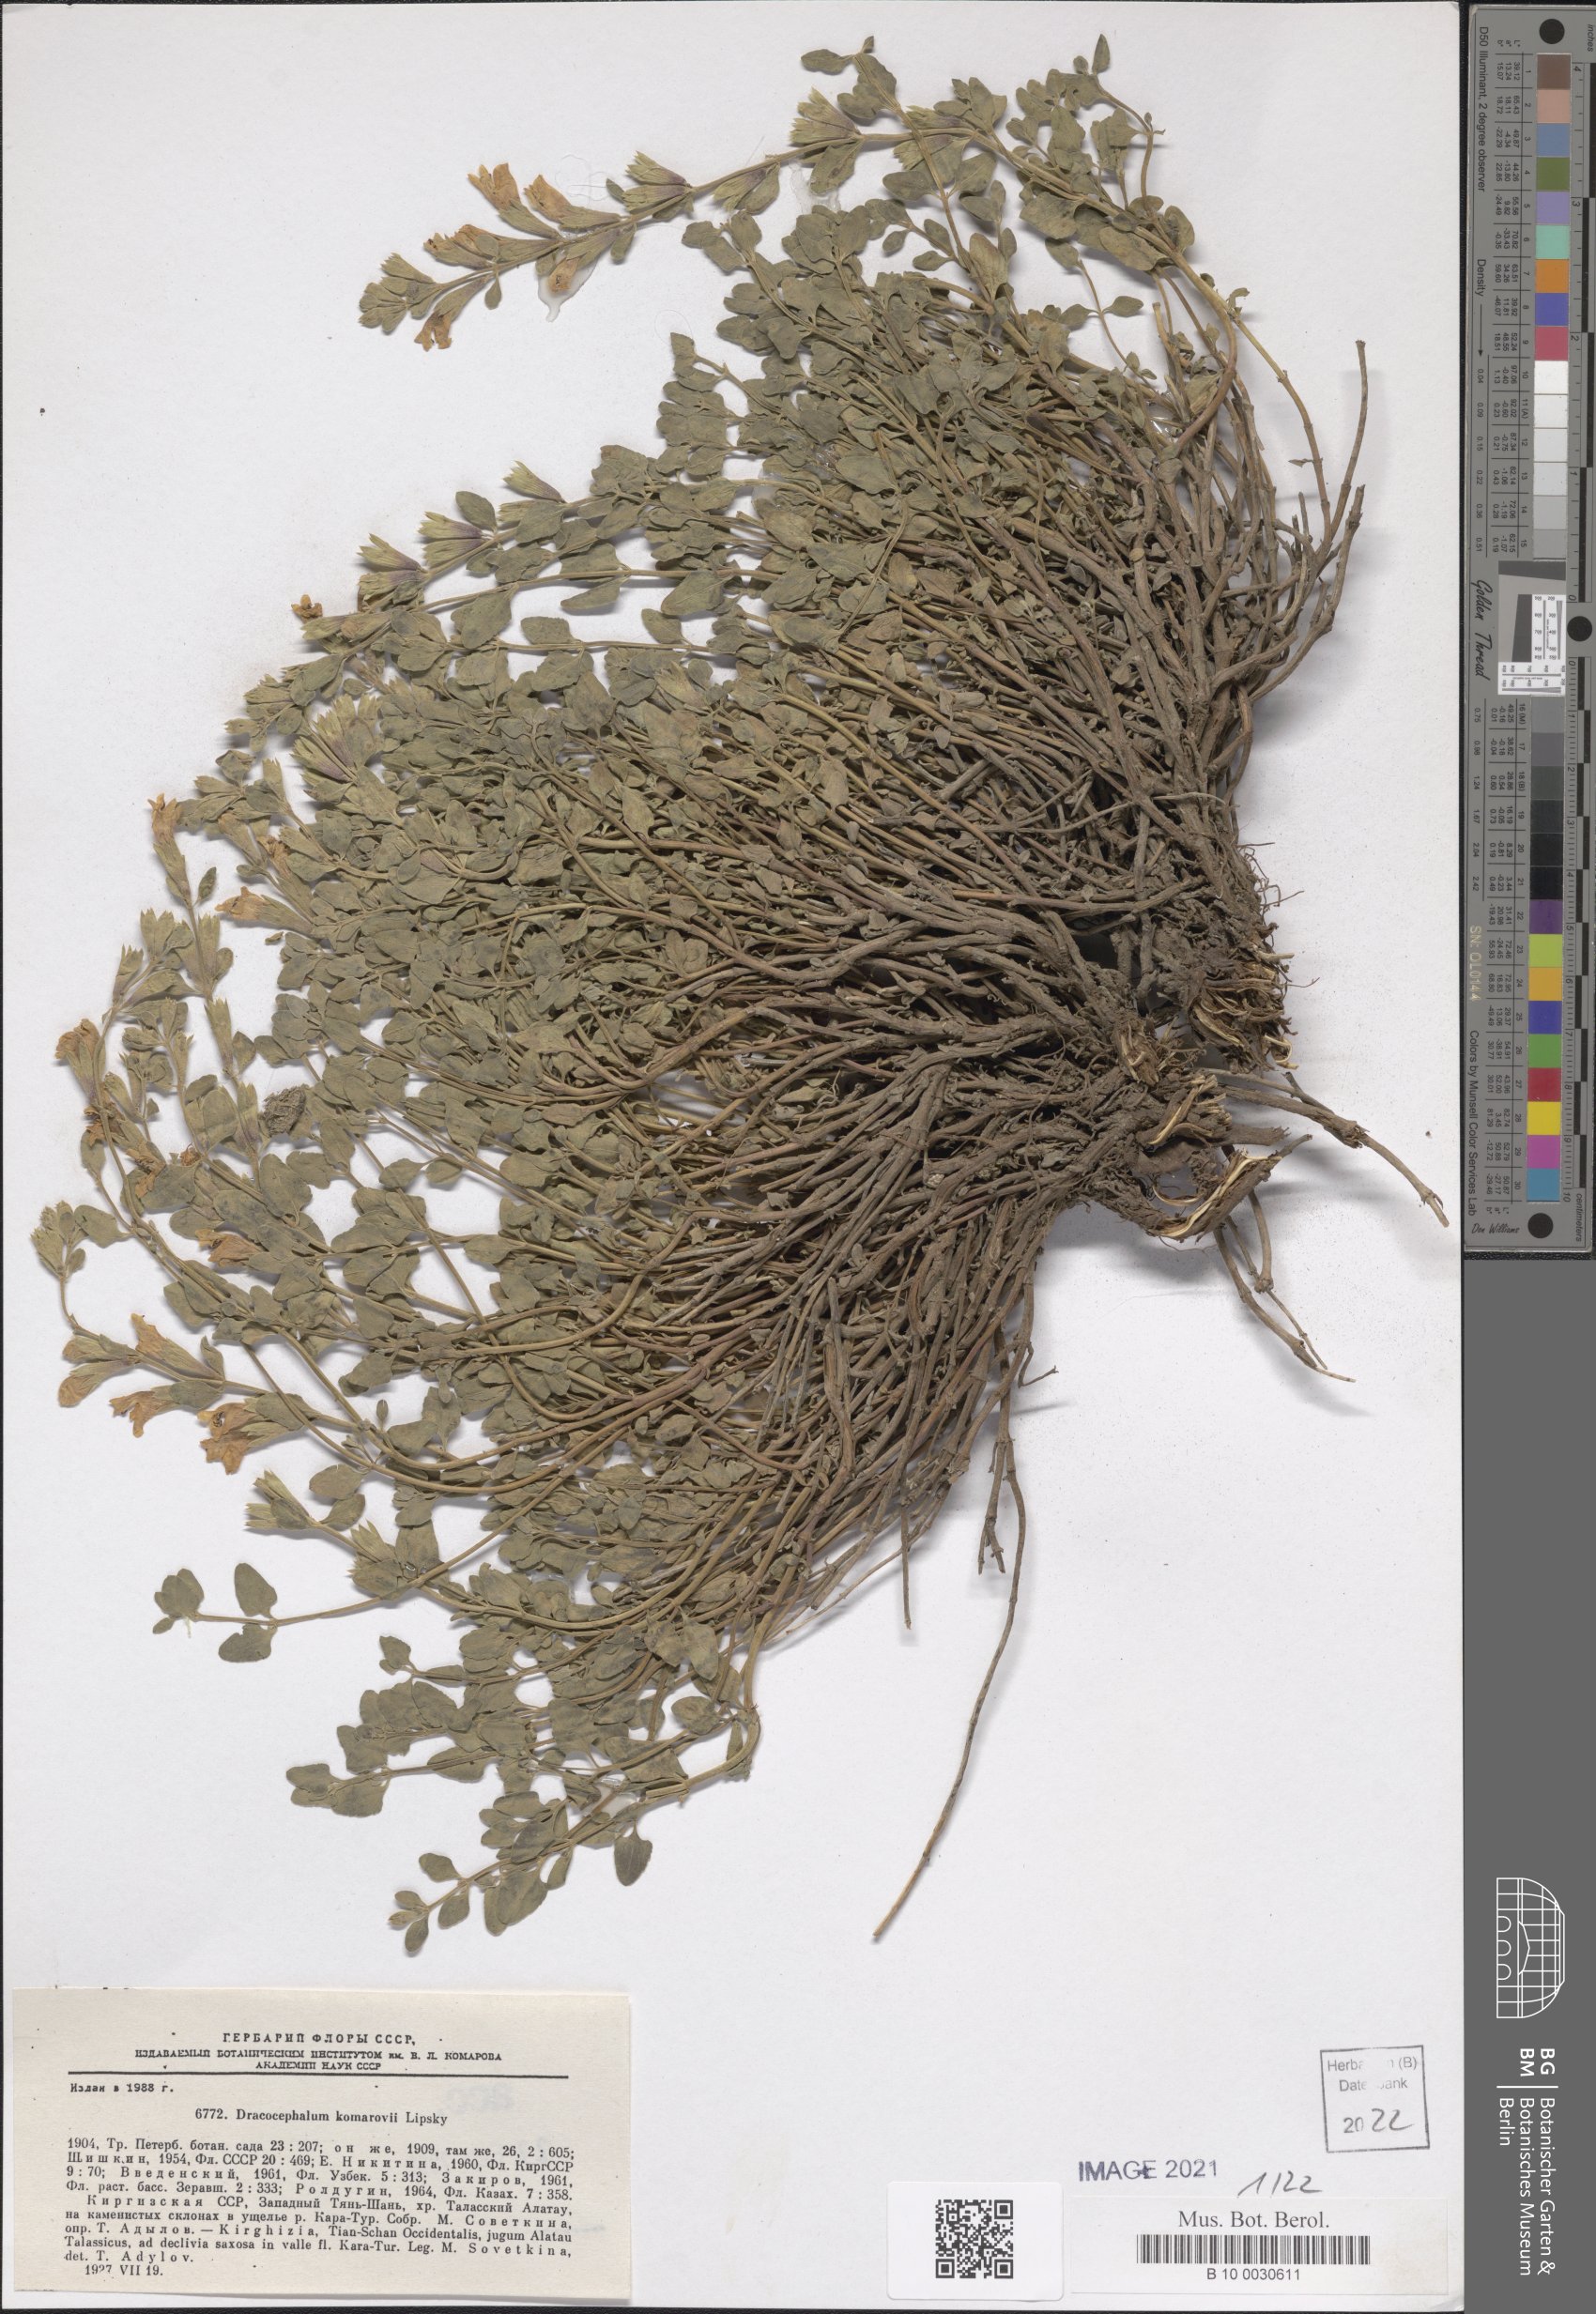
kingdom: Plantae
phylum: Tracheophyta
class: Magnoliopsida
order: Lamiales
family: Lamiaceae
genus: Dracocephalum
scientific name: Dracocephalum komarovii
